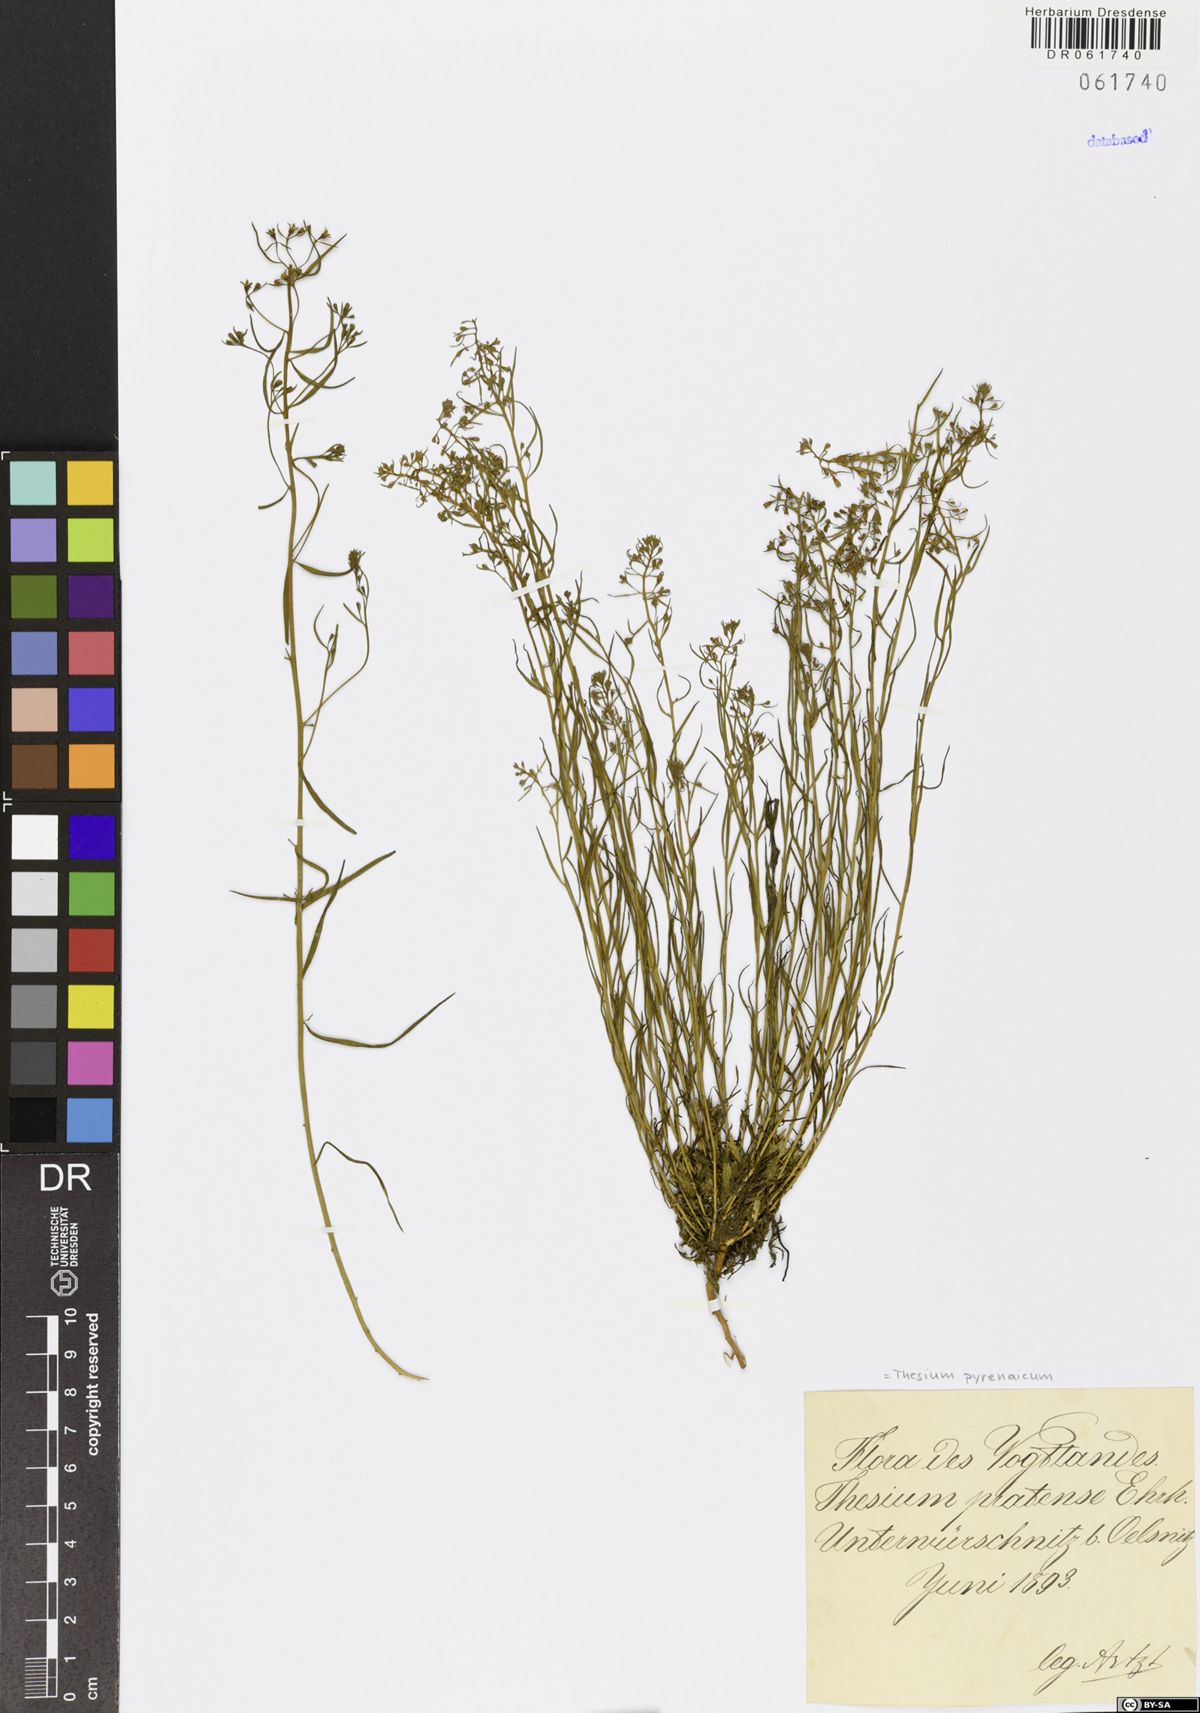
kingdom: Plantae
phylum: Tracheophyta
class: Magnoliopsida
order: Santalales
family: Thesiaceae
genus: Thesium
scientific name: Thesium pyrenaicum
